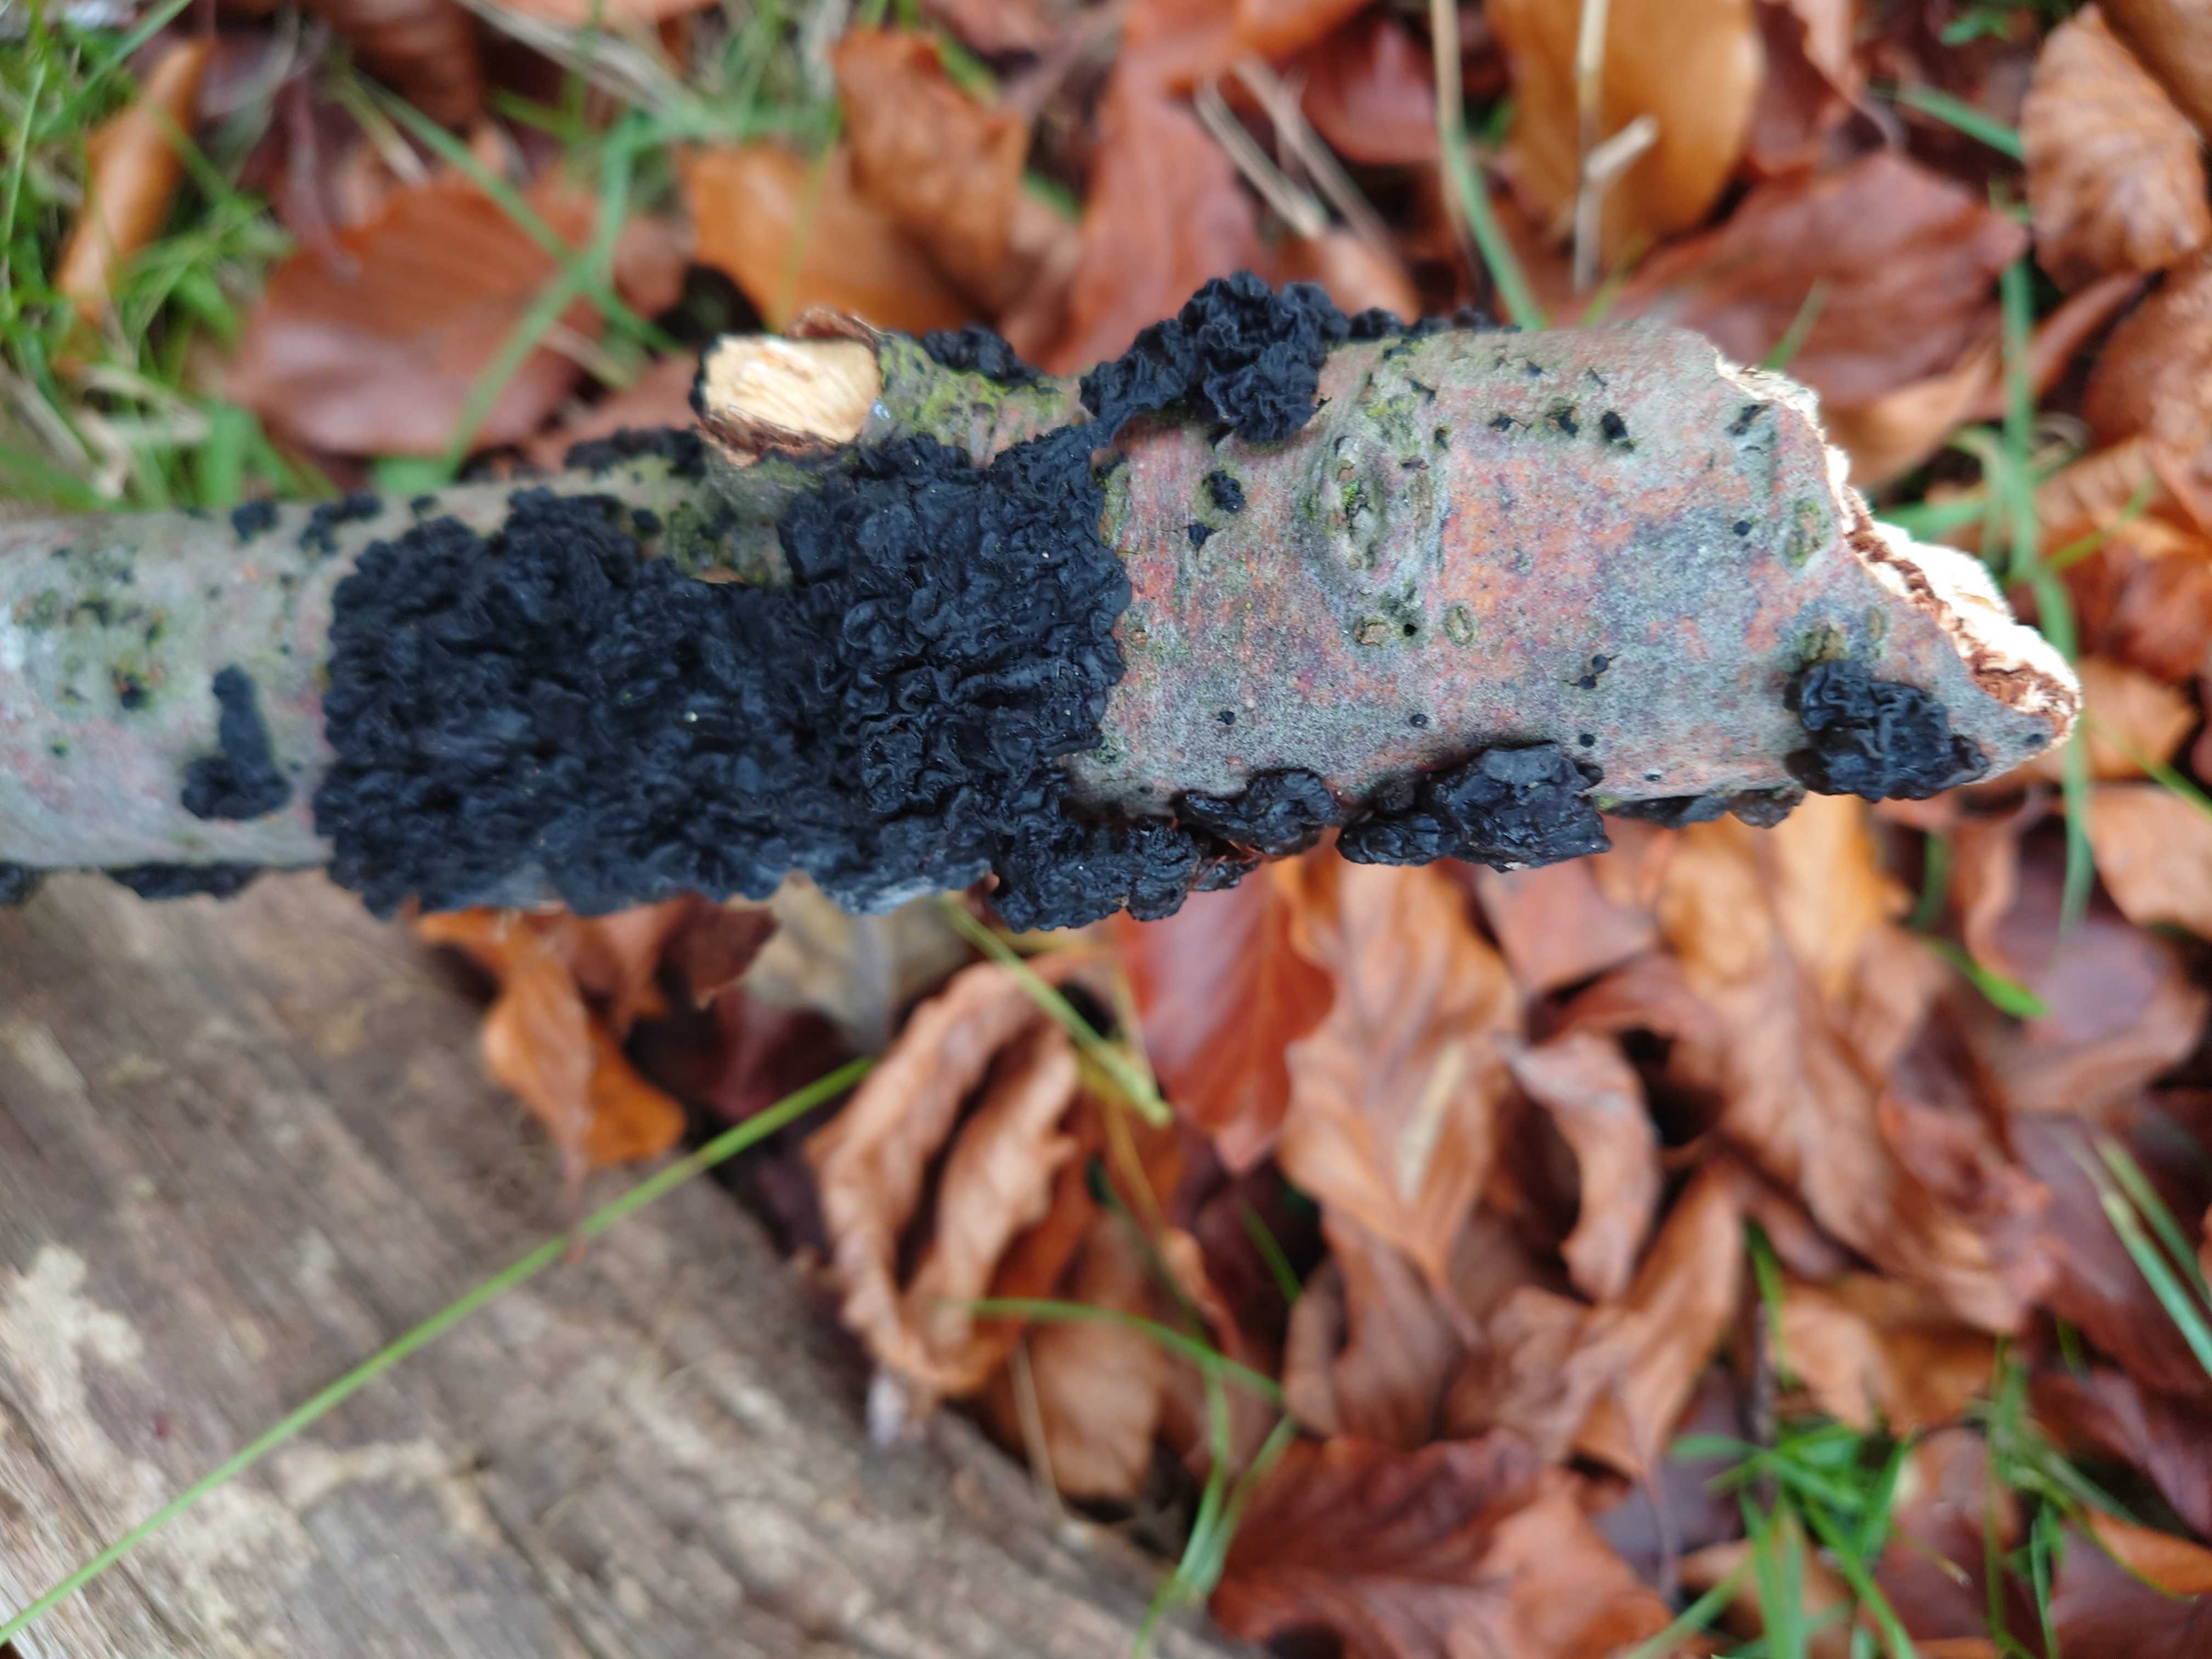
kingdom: Fungi
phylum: Basidiomycota
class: Agaricomycetes
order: Auriculariales
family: Auriculariaceae
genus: Exidia
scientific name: Exidia nigricans
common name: almindelig bævretop
